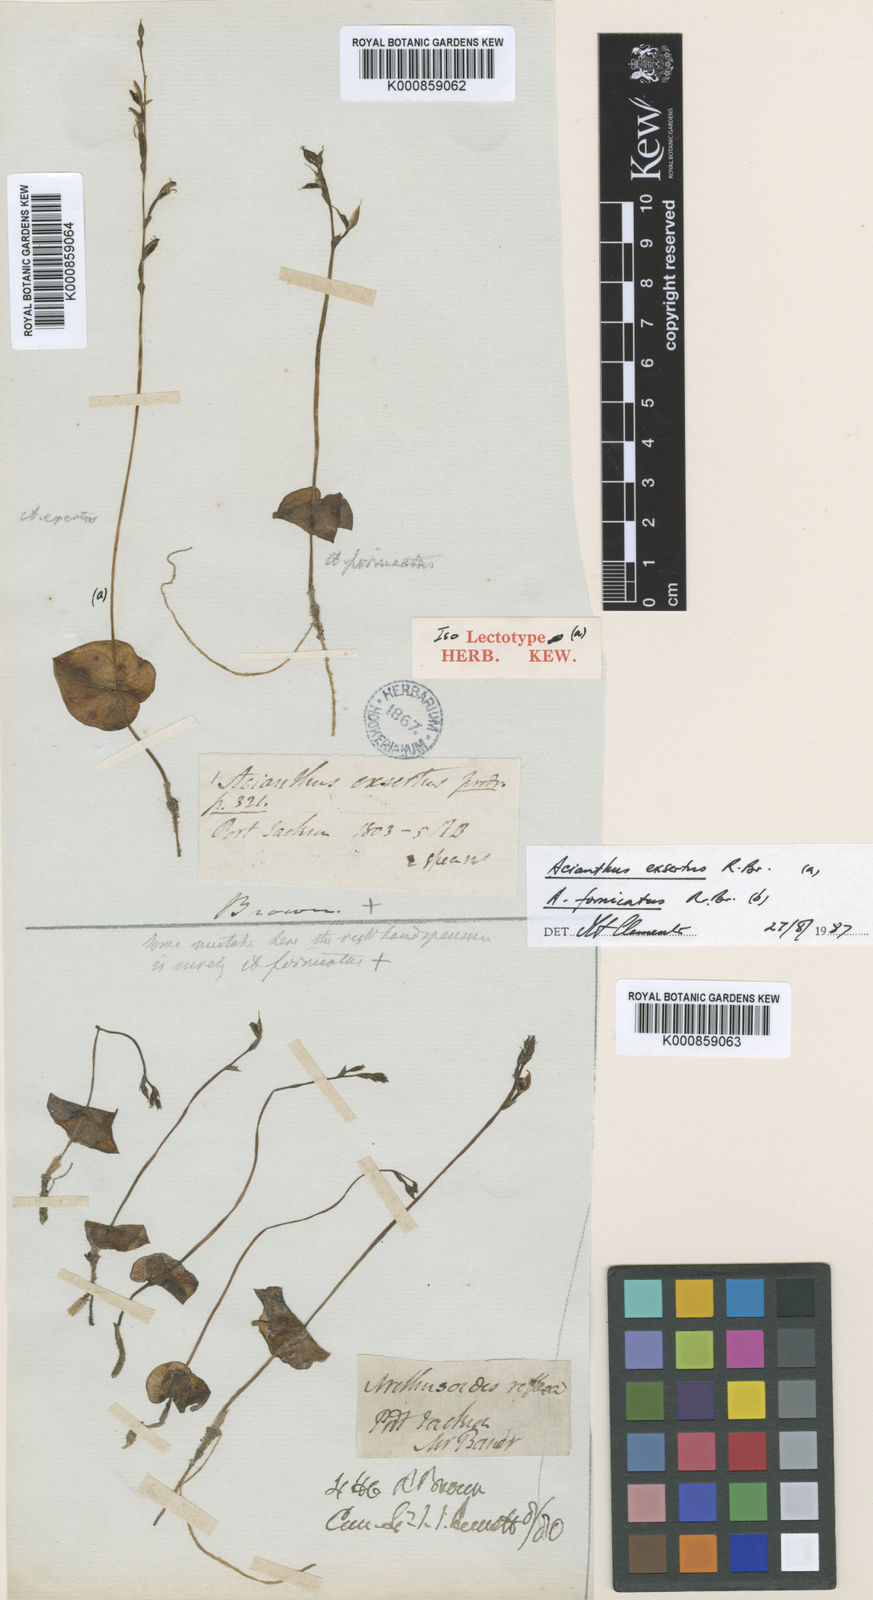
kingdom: Plantae
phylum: Tracheophyta
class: Liliopsida
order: Asparagales
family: Orchidaceae
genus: Acianthus
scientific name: Acianthus exsertus
